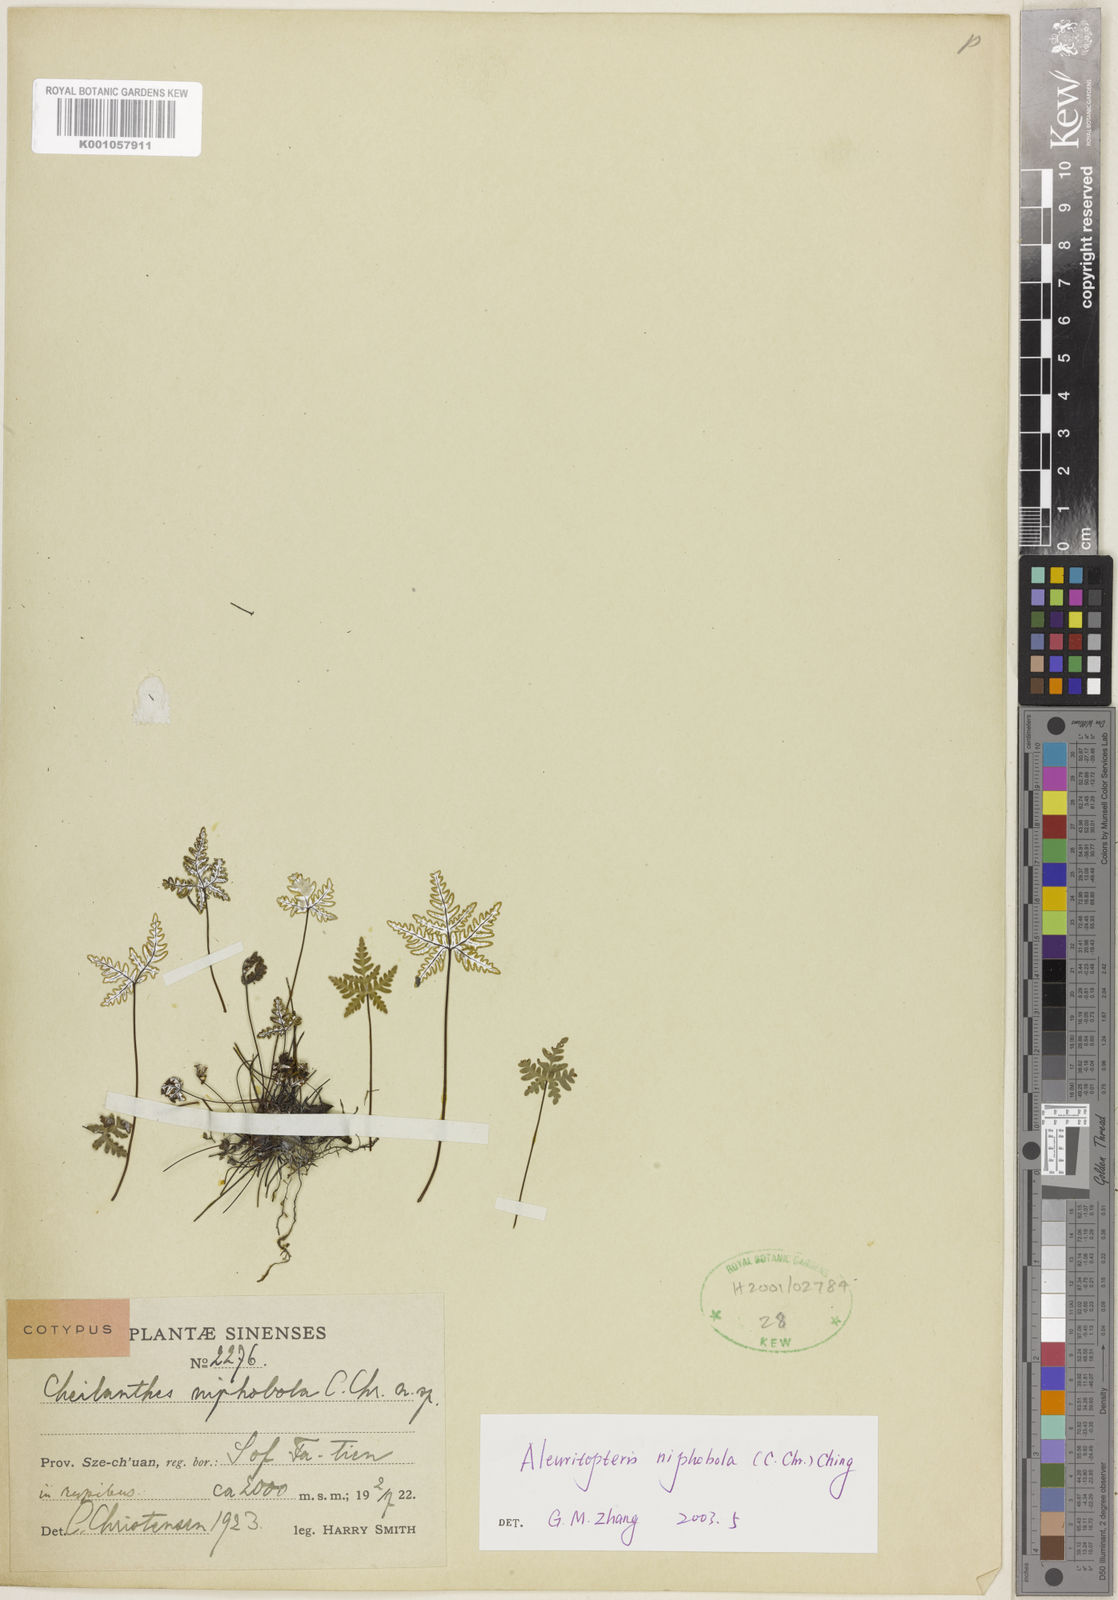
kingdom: Plantae
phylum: Tracheophyta
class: Polypodiopsida
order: Polypodiales
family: Pteridaceae
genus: Aleuritopteris
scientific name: Aleuritopteris niphobola
